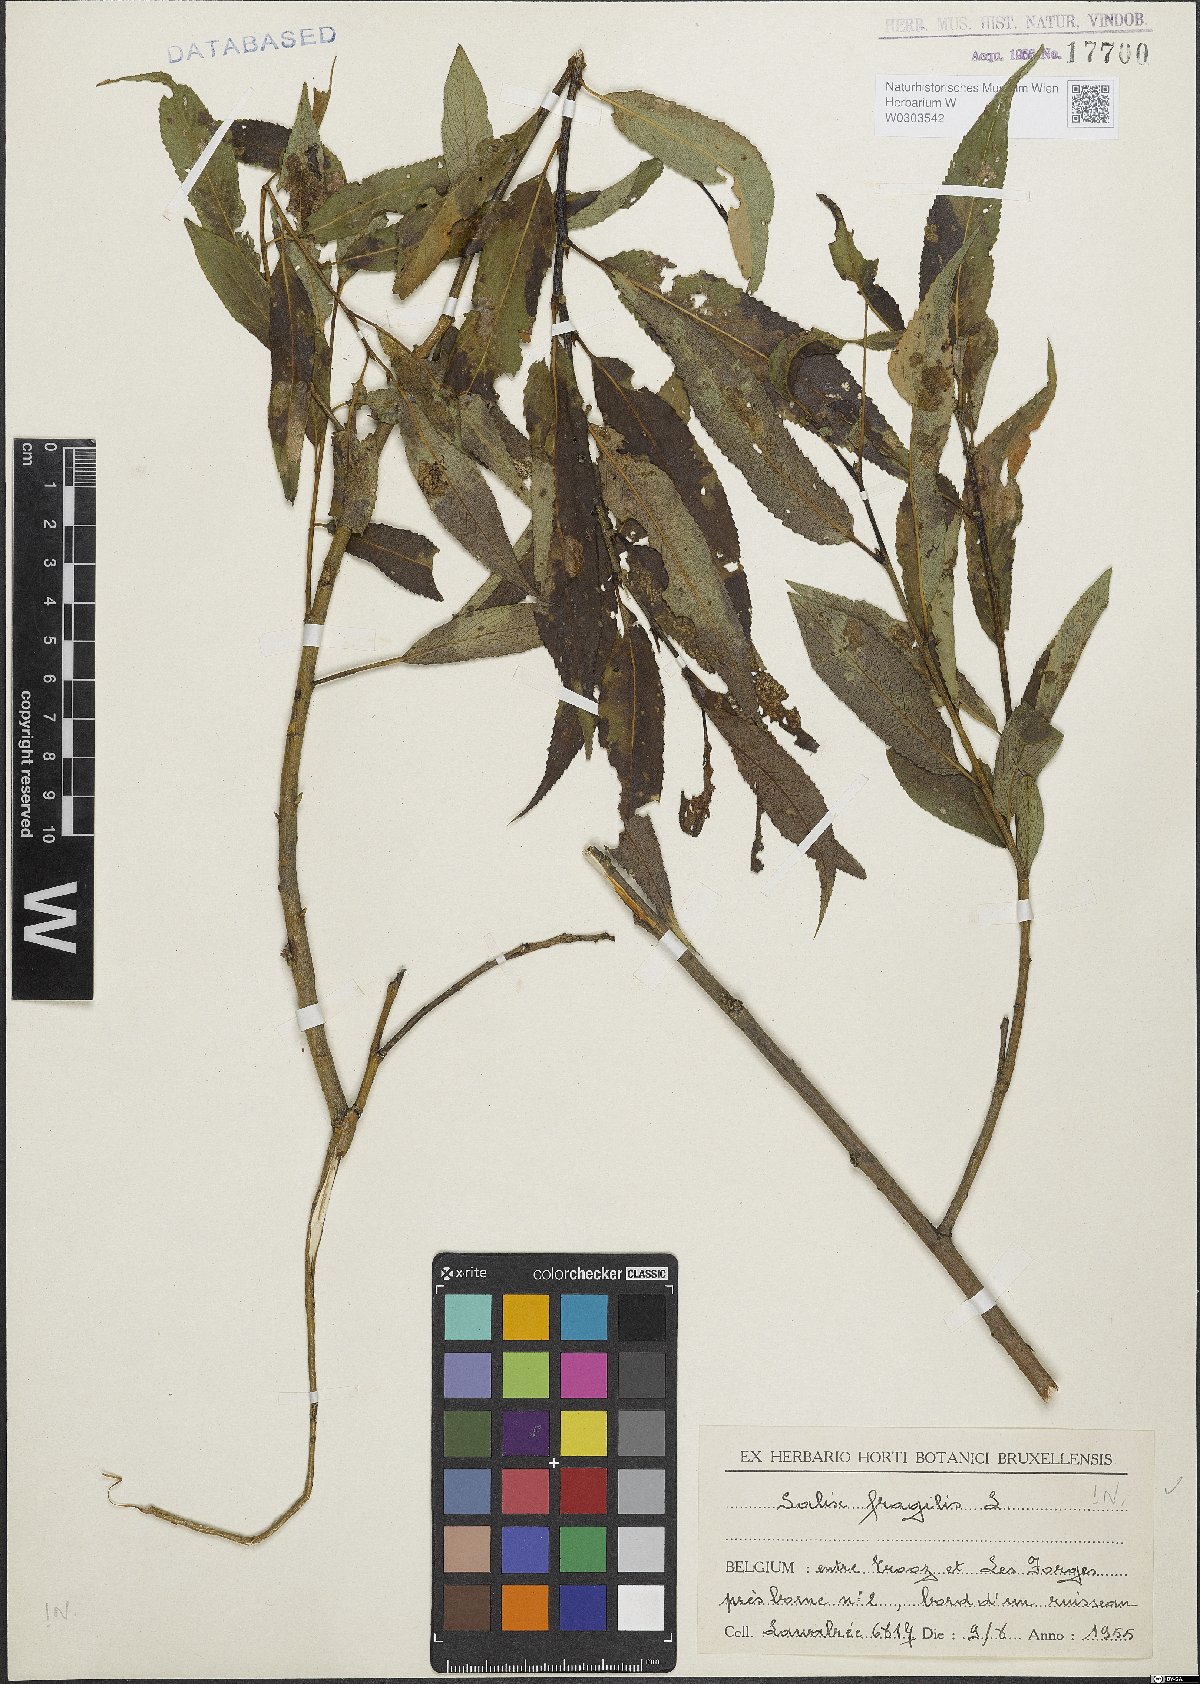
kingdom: Plantae
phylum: Tracheophyta
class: Magnoliopsida
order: Malpighiales
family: Salicaceae
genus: Salix
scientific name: Salix fragilis
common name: Crack willow
